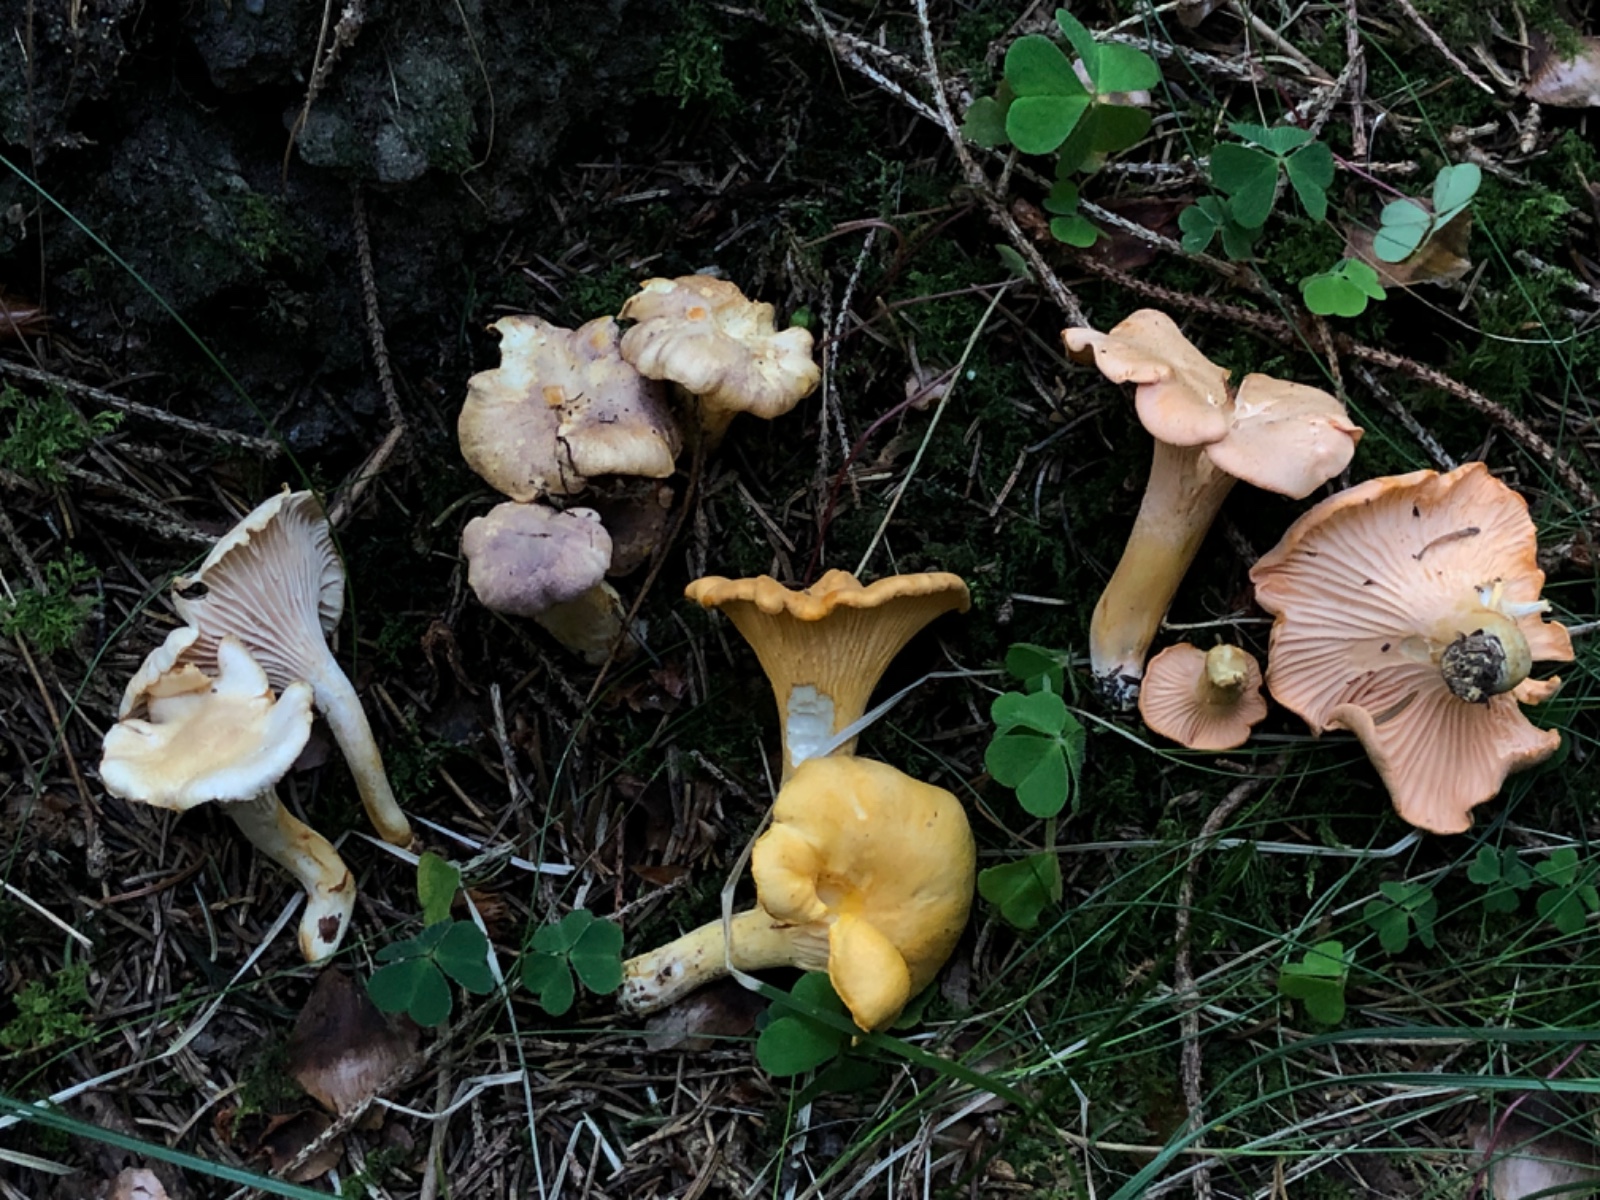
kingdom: Fungi
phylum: Basidiomycota
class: Agaricomycetes
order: Cantharellales
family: Hydnaceae
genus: Cantharellus
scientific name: Cantharellus
